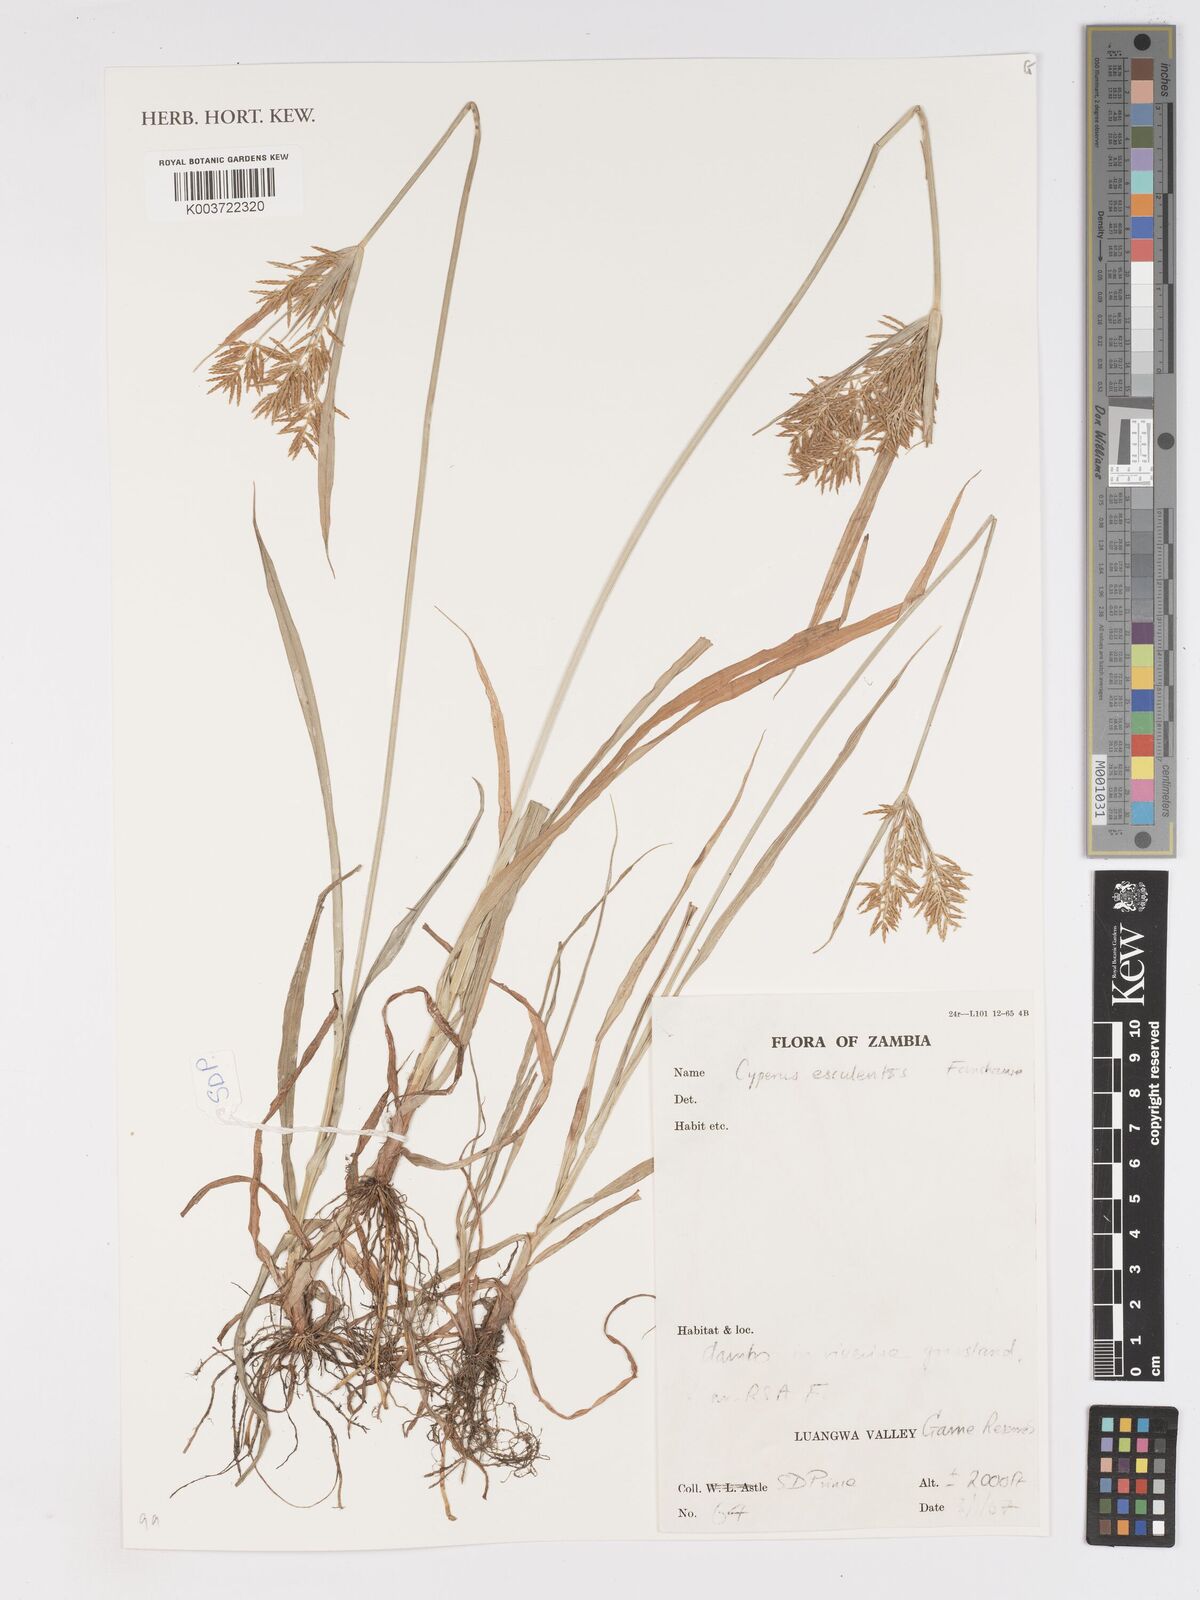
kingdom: Plantae
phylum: Tracheophyta
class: Liliopsida
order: Poales
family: Cyperaceae
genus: Cyperus
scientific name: Cyperus esculentus
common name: Yellow nutsedge
